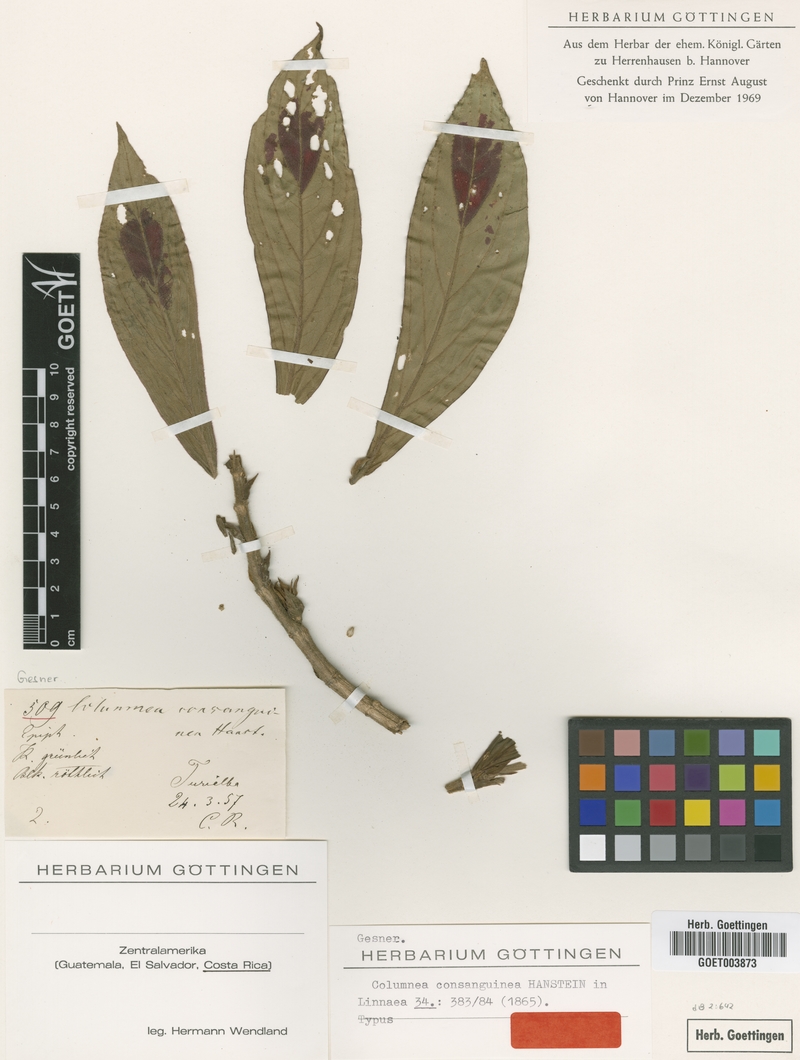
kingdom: Plantae
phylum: Tracheophyta
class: Magnoliopsida
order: Lamiales
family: Gesneriaceae
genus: Columnea
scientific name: Columnea consanguinea
